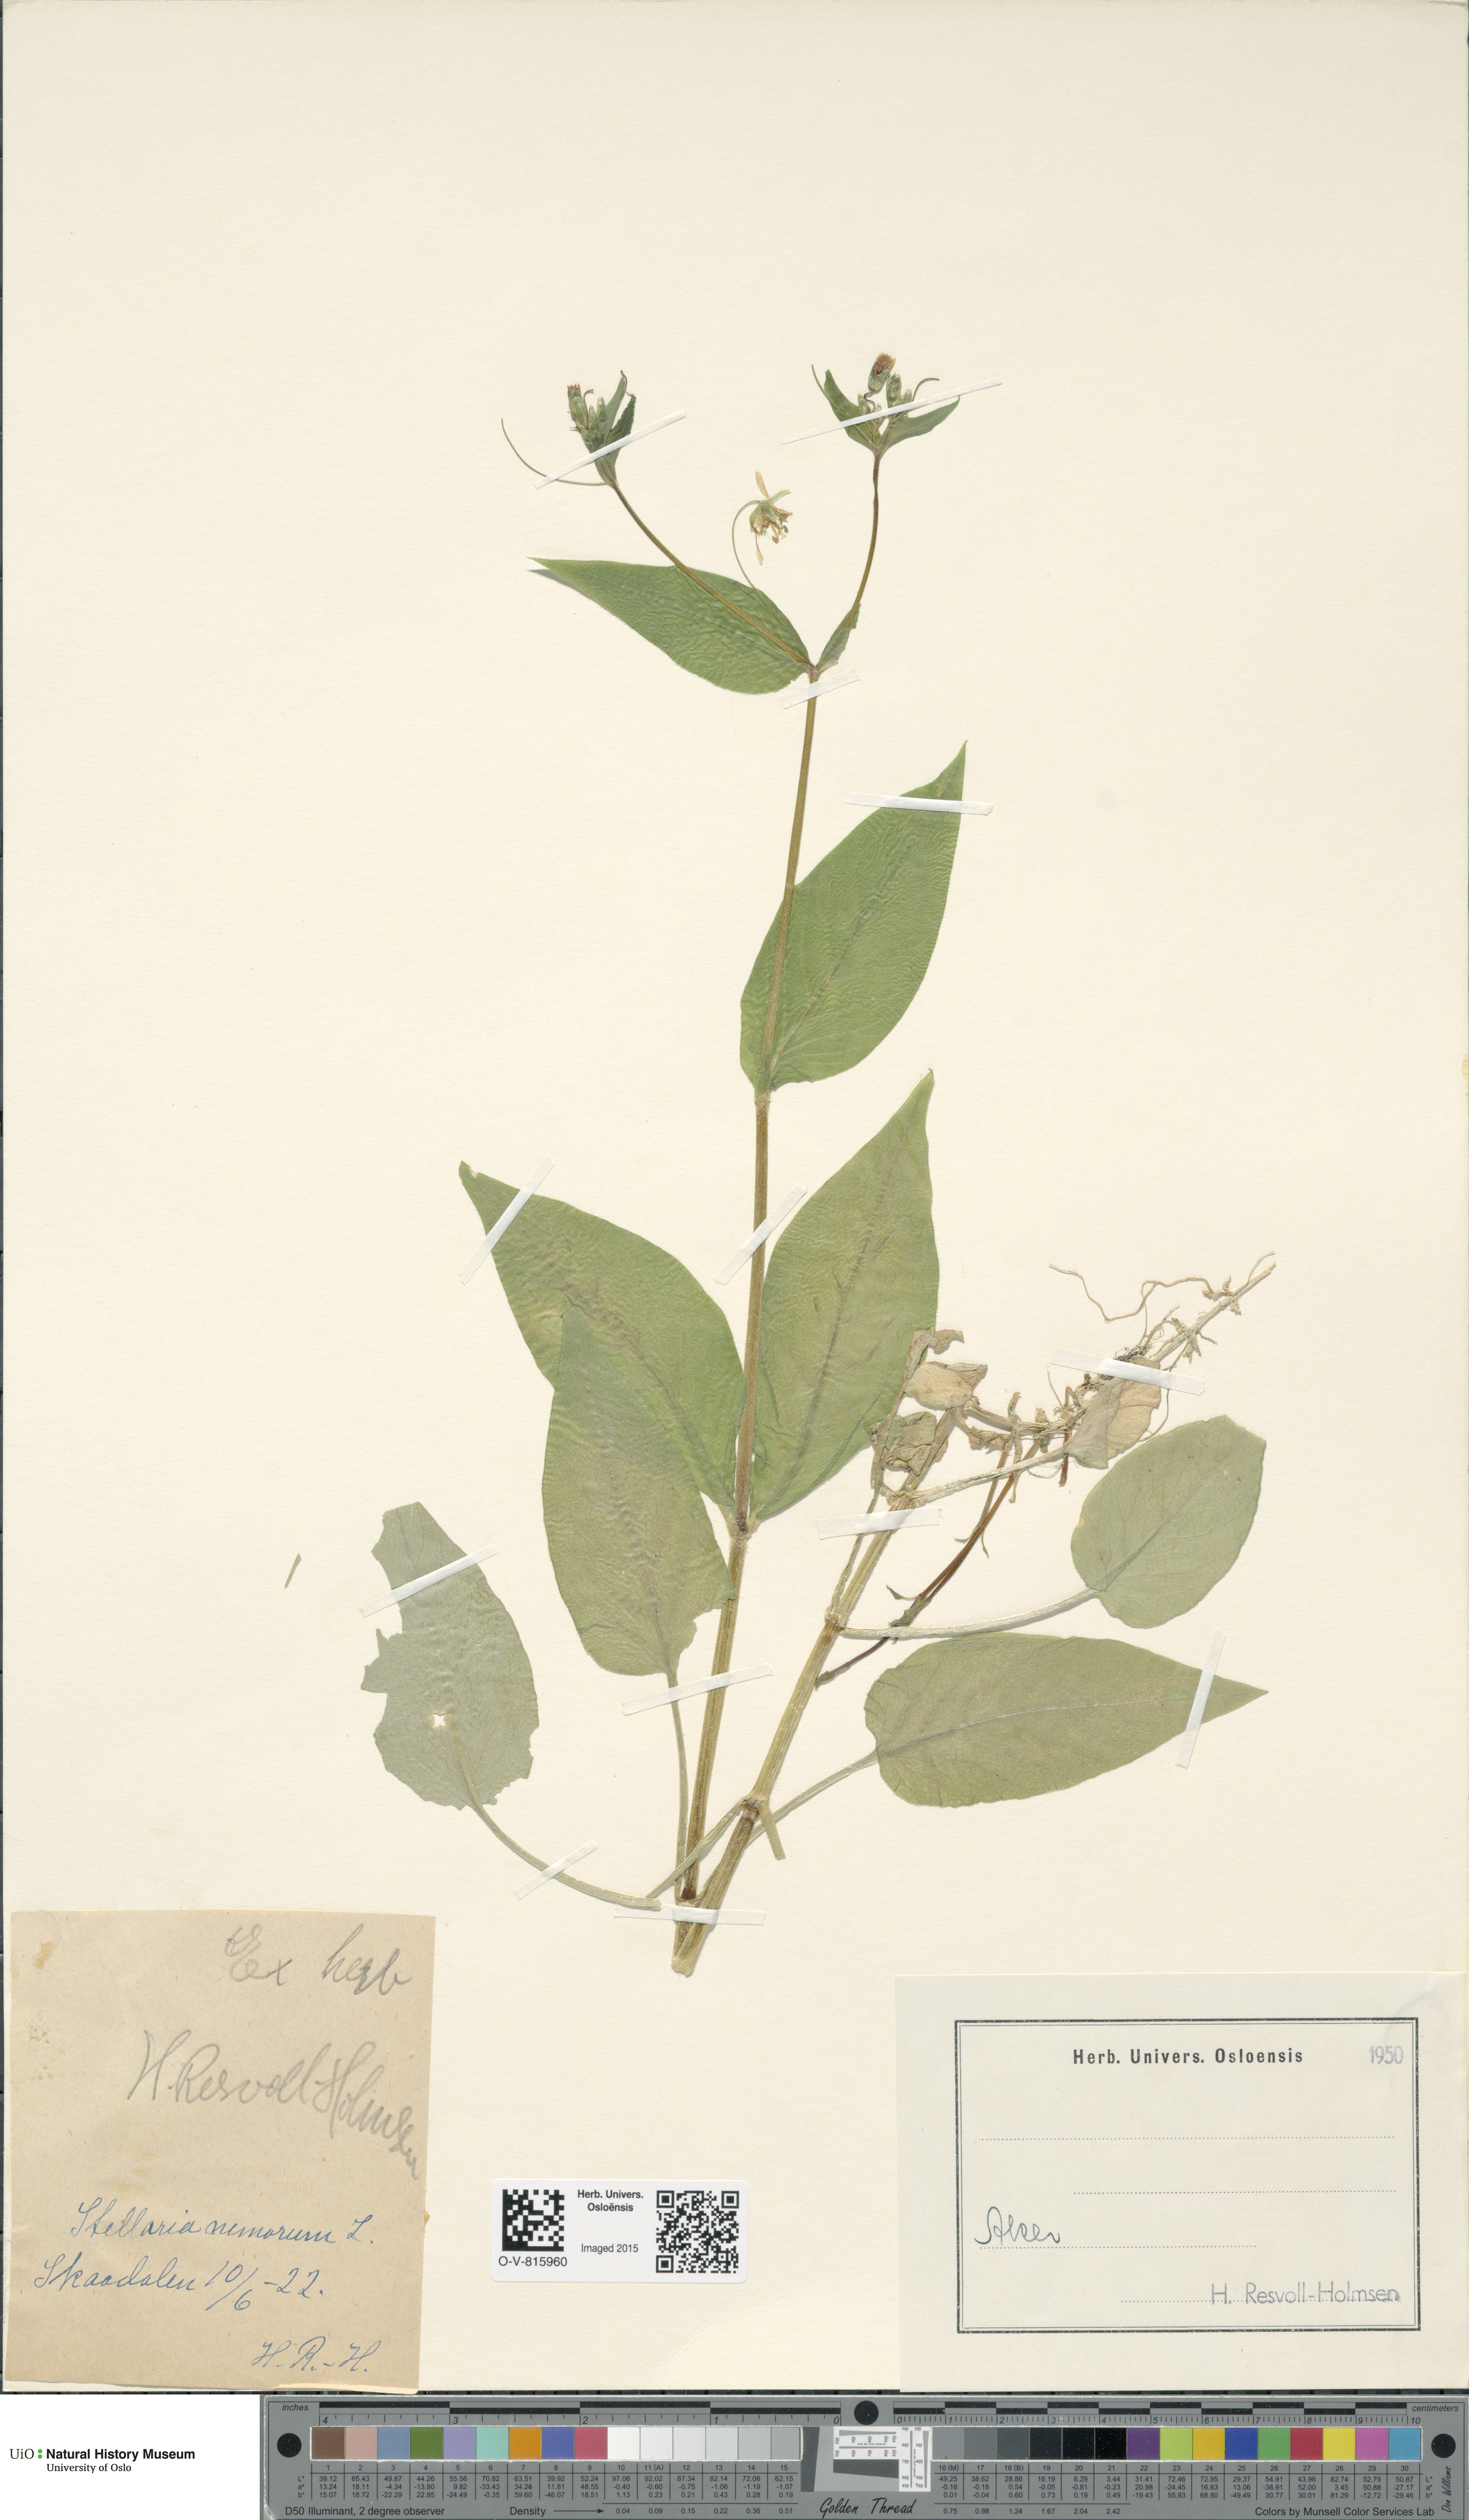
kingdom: Plantae
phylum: Tracheophyta
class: Magnoliopsida
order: Caryophyllales
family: Caryophyllaceae
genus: Stellaria
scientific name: Stellaria nemorum
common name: Wood stitchwort
